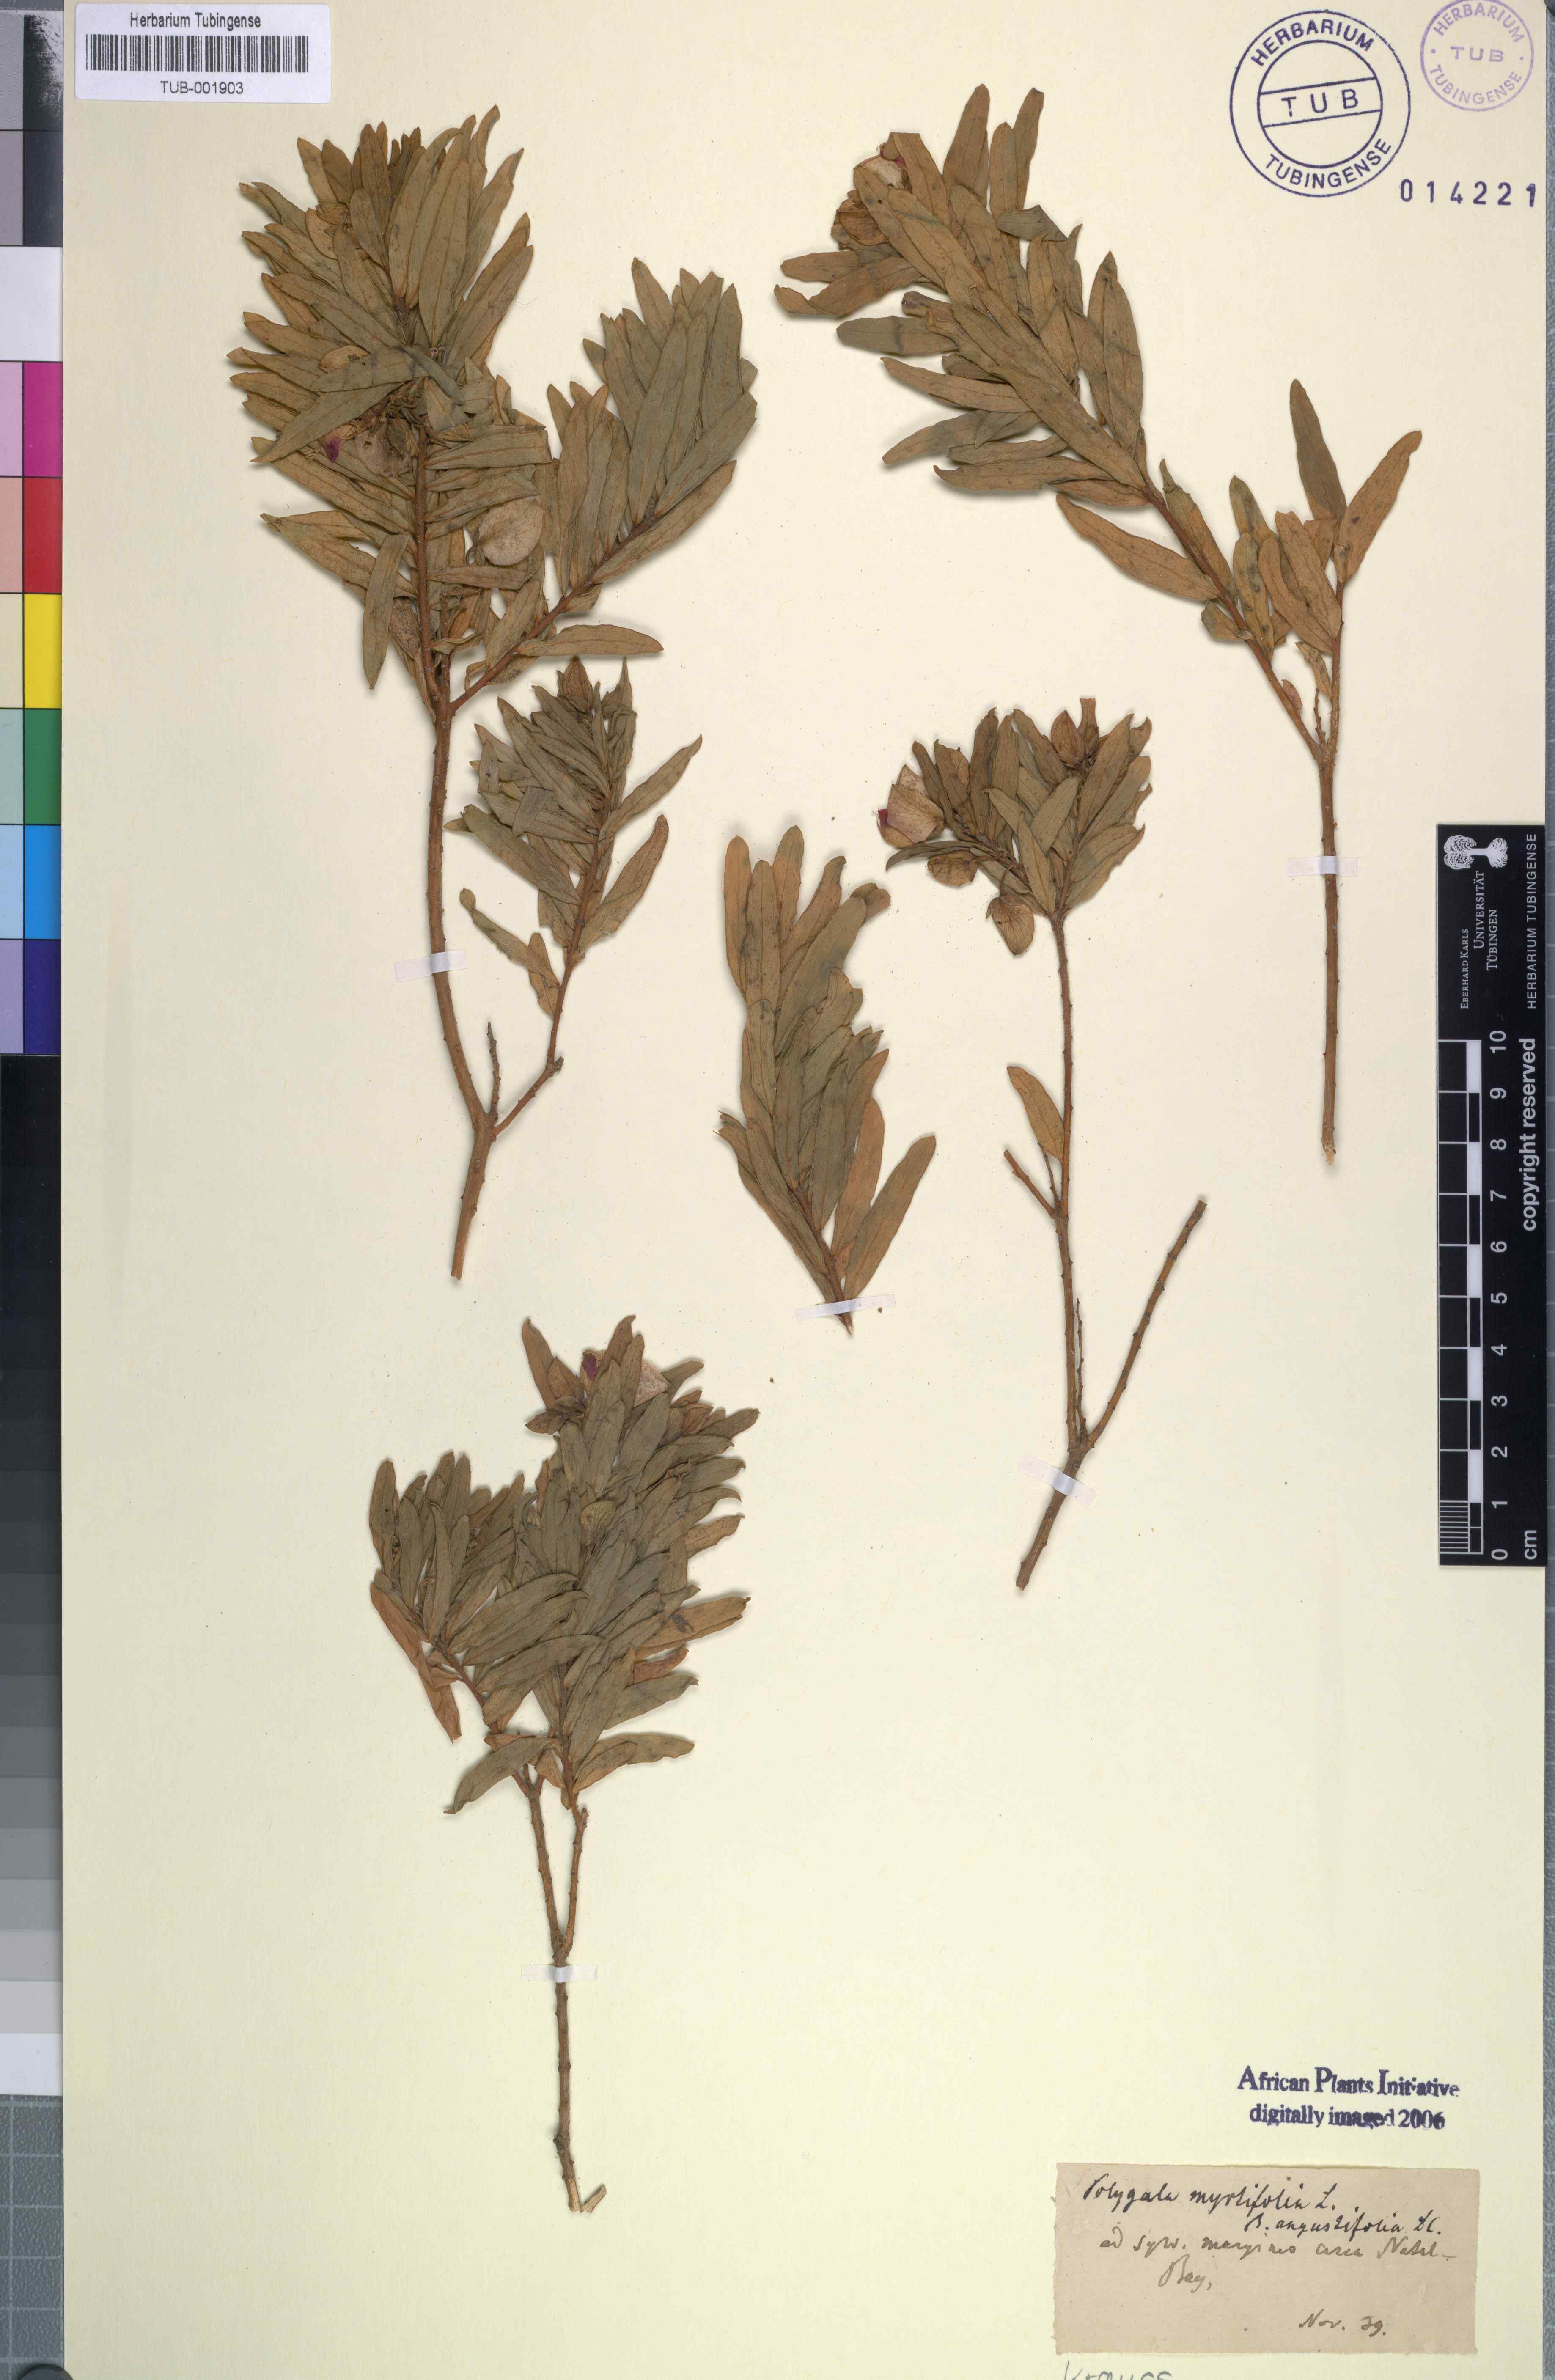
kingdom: Plantae
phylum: Tracheophyta
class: Magnoliopsida
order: Fabales
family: Polygalaceae
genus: Polygala
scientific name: Polygala myrtifolia
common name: Myrtle-leaf milkwort
